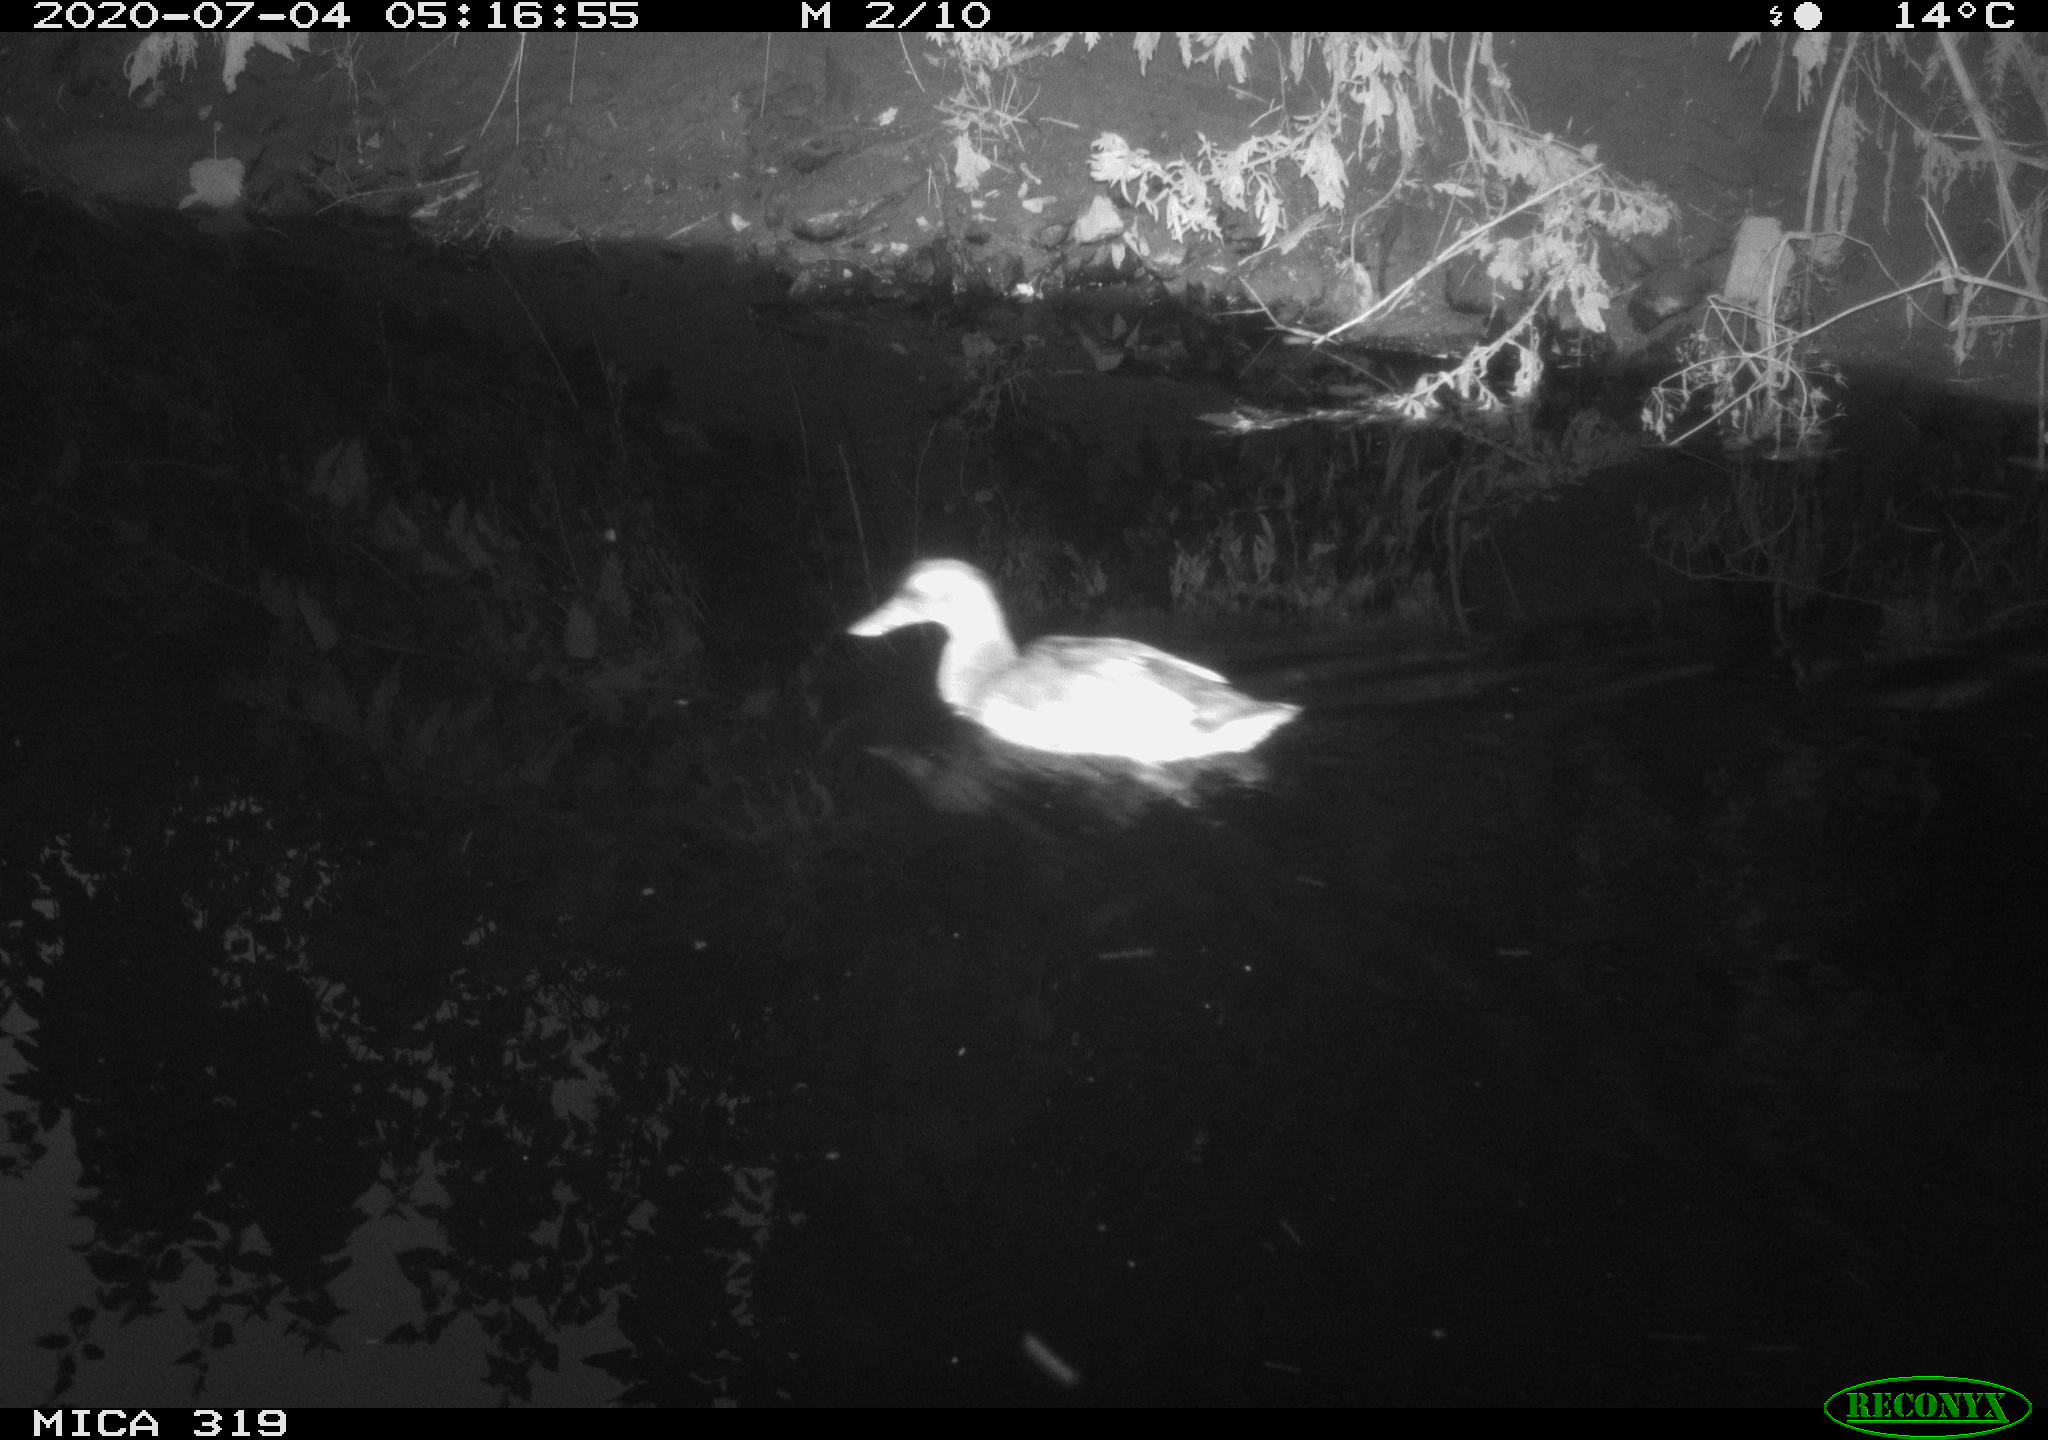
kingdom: Animalia
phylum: Chordata
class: Aves
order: Anseriformes
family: Anatidae
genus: Anas
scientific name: Anas platyrhynchos
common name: Mallard
